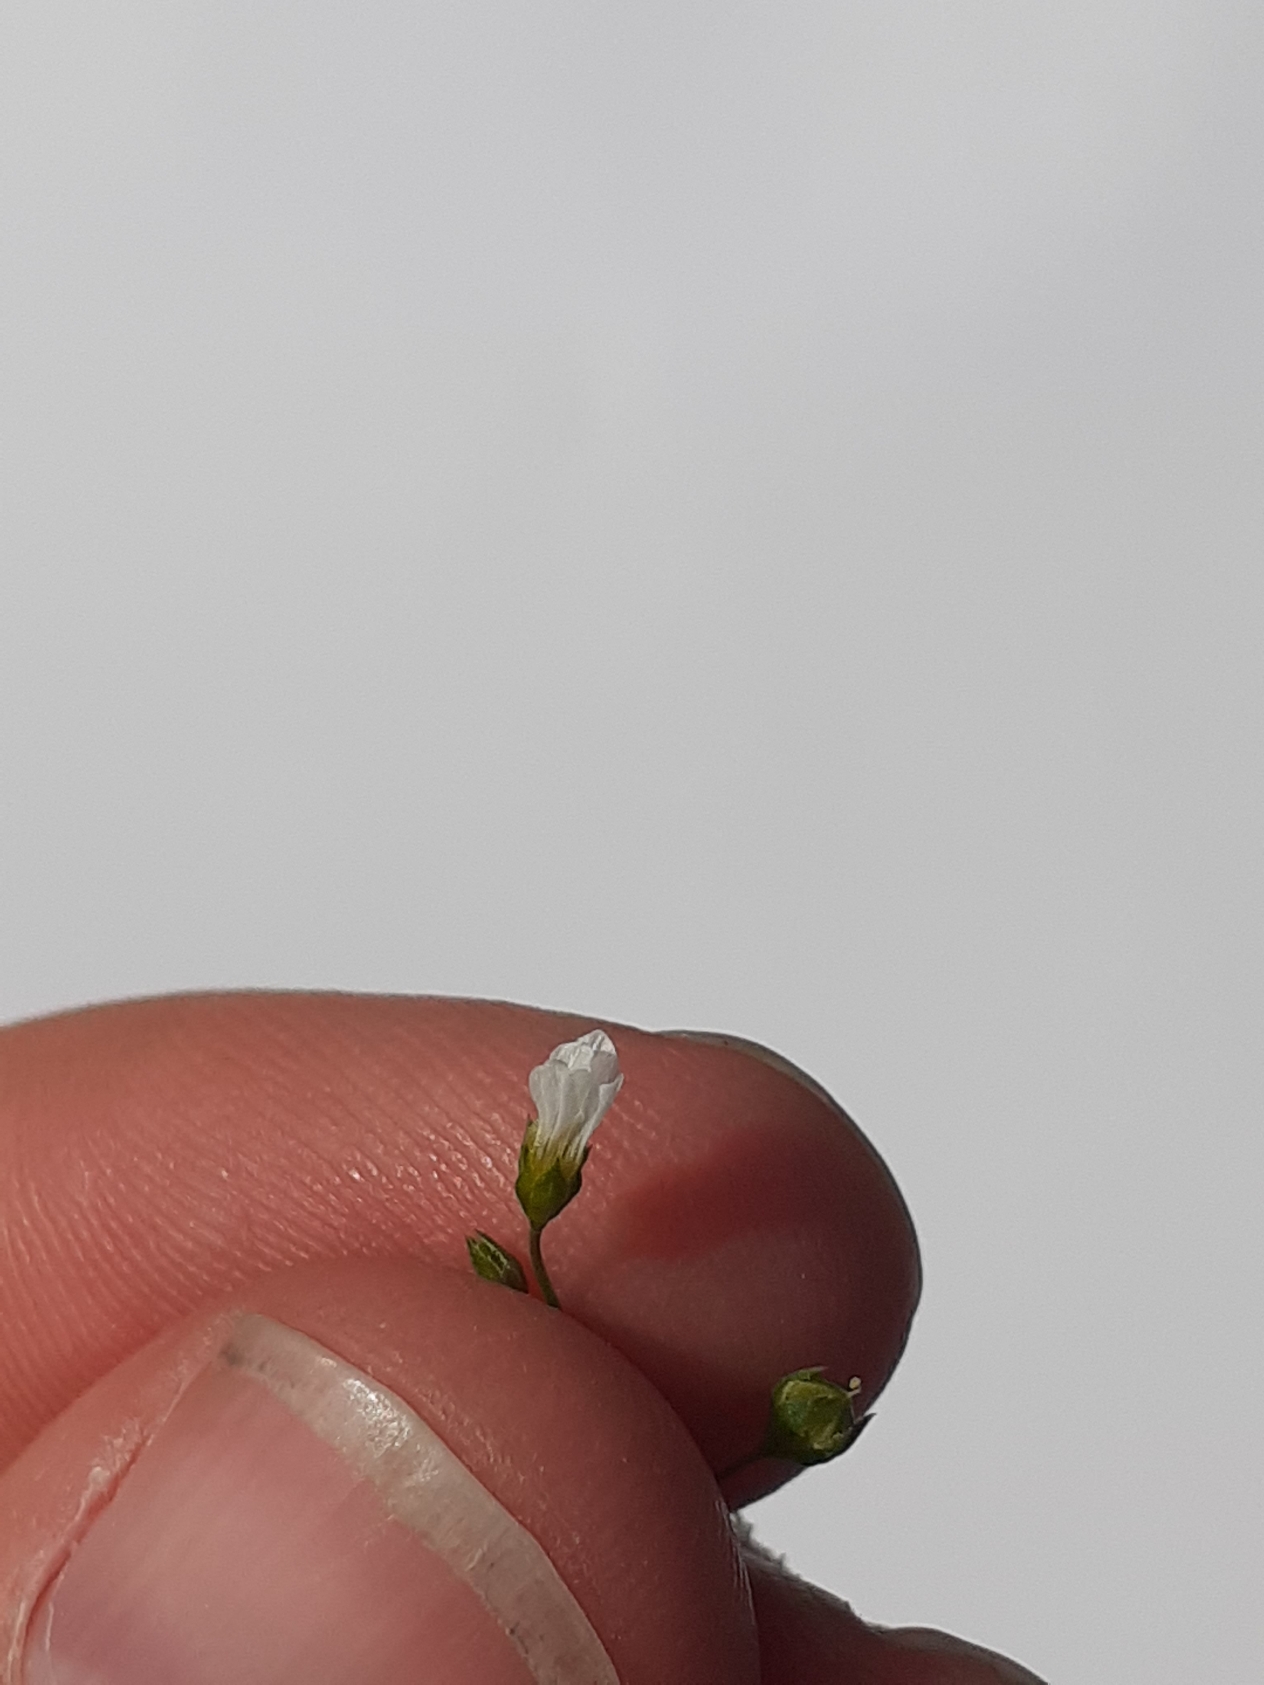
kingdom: Plantae
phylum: Tracheophyta
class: Magnoliopsida
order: Malpighiales
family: Linaceae
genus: Linum
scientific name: Linum catharticum
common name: Vild hør
